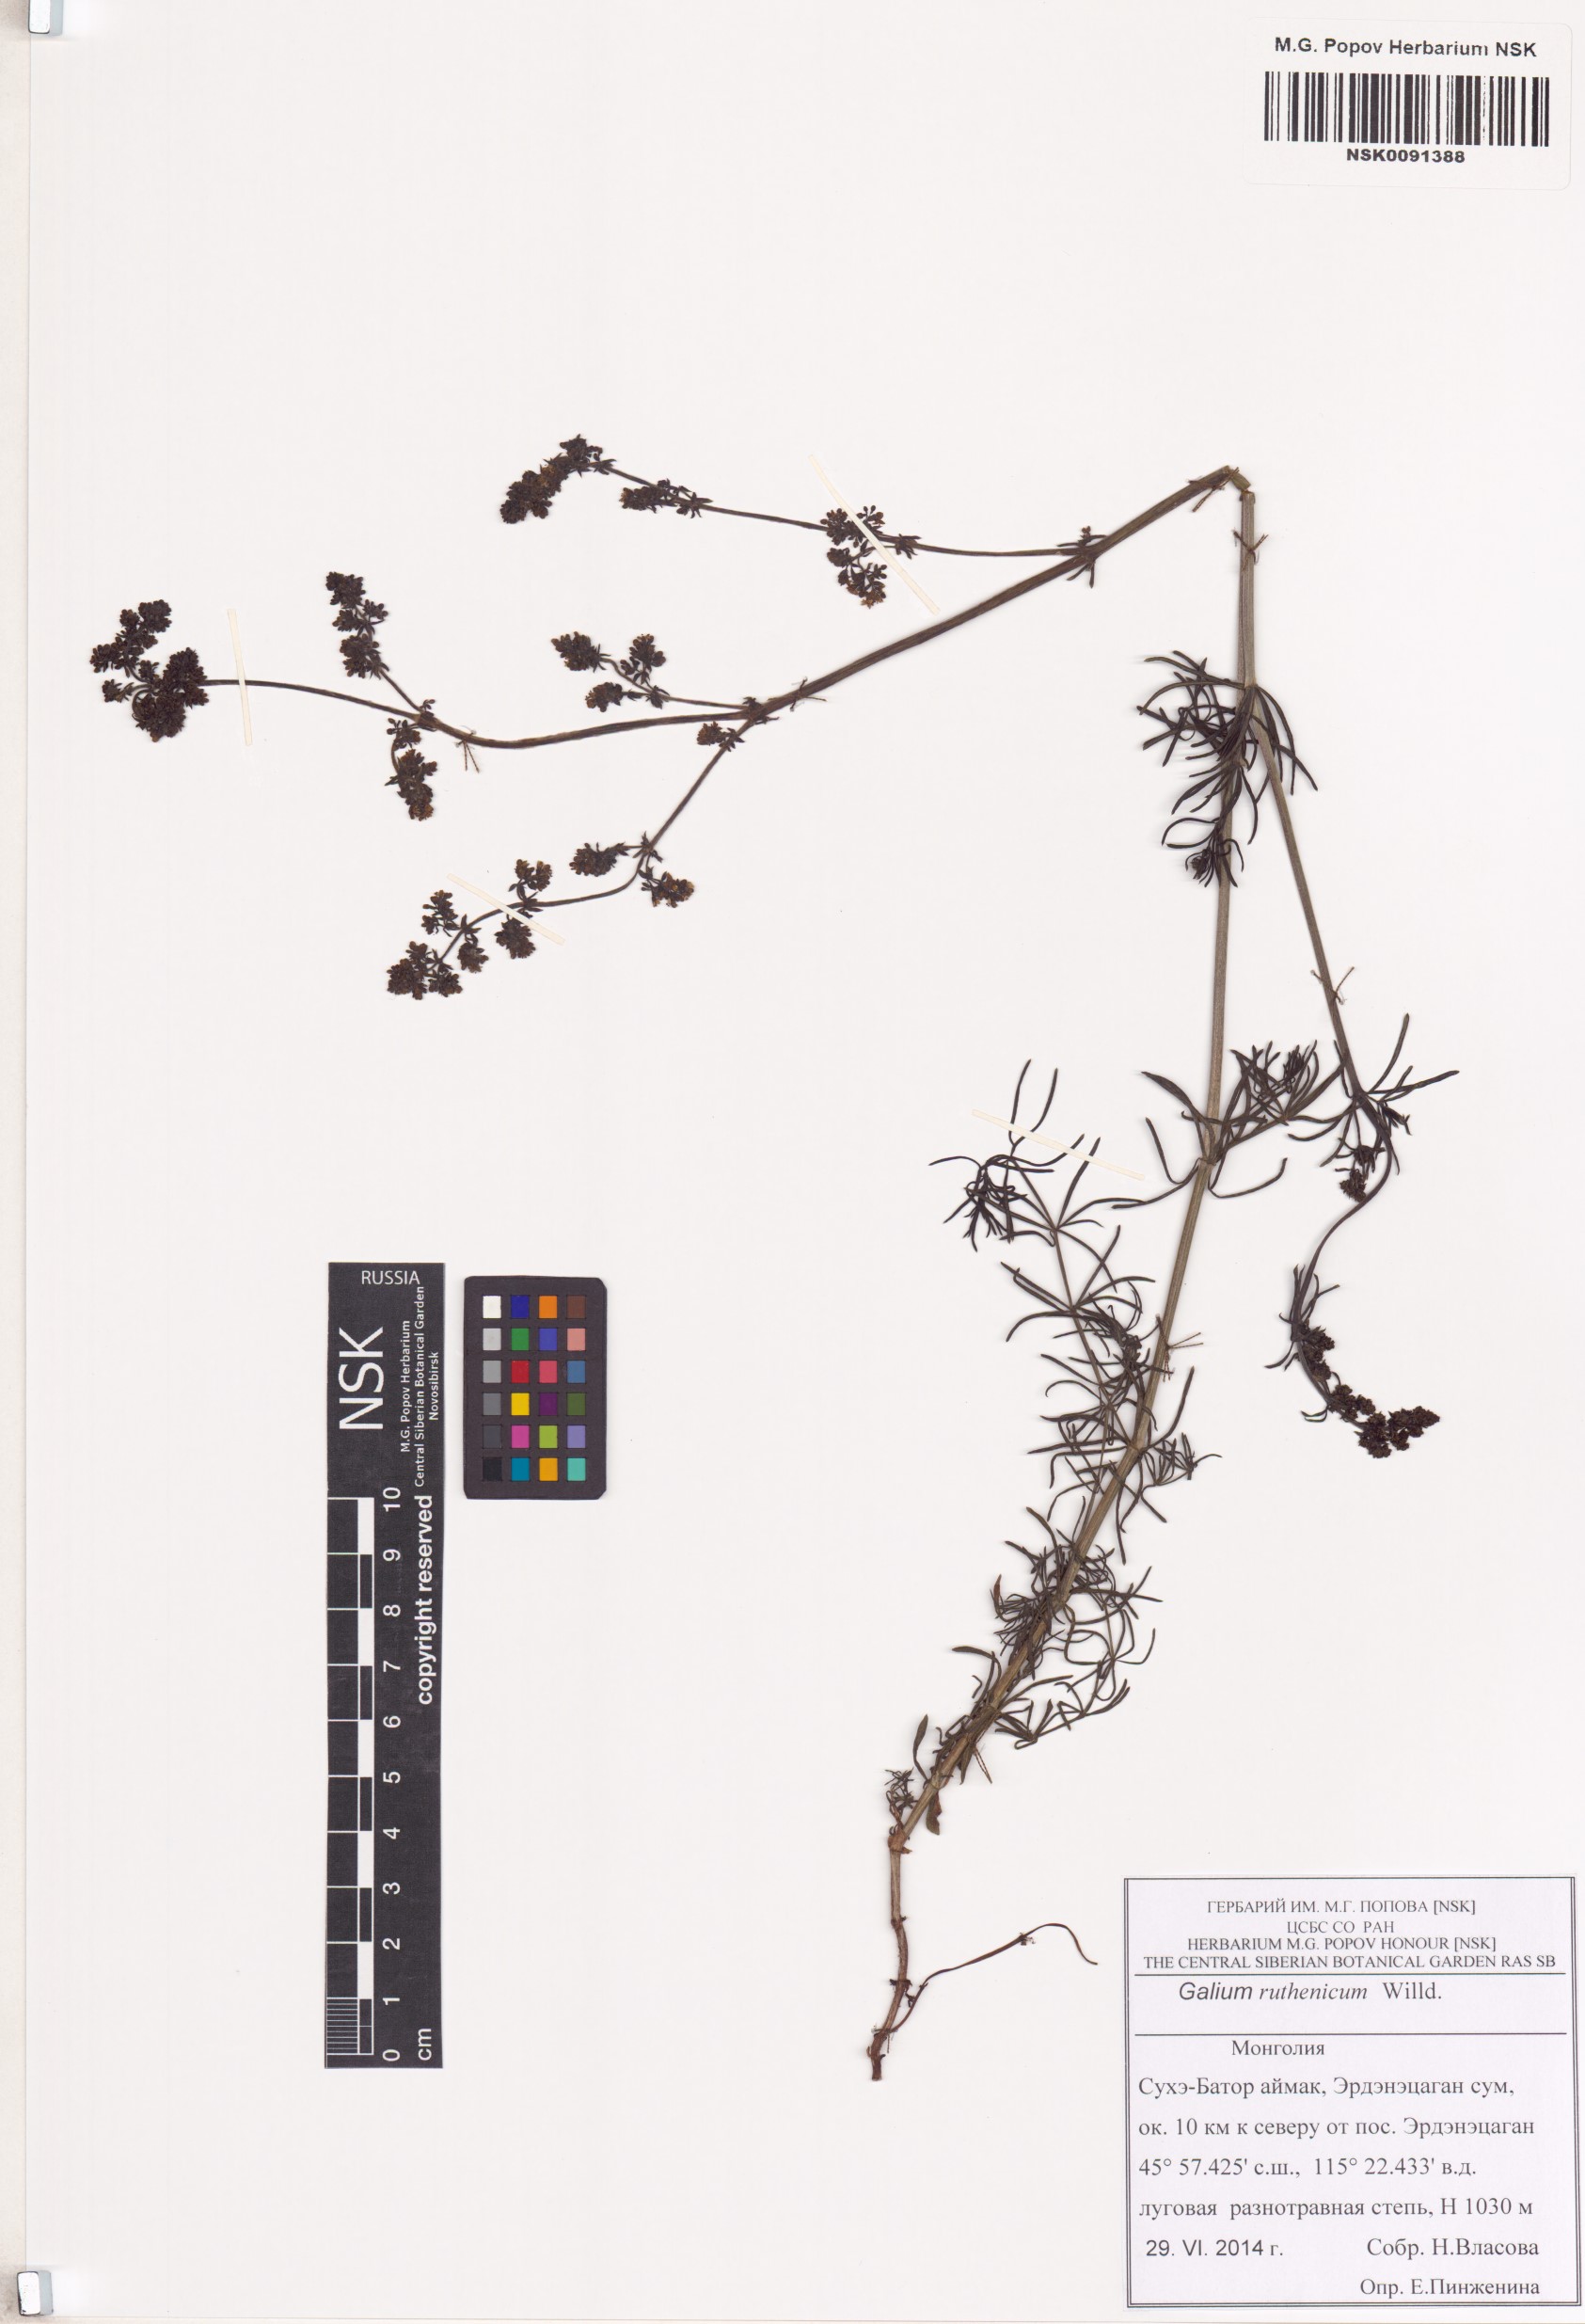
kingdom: Plantae
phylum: Tracheophyta
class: Magnoliopsida
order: Gentianales
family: Rubiaceae
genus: Galium
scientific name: Galium verum
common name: Lady's bedstraw
